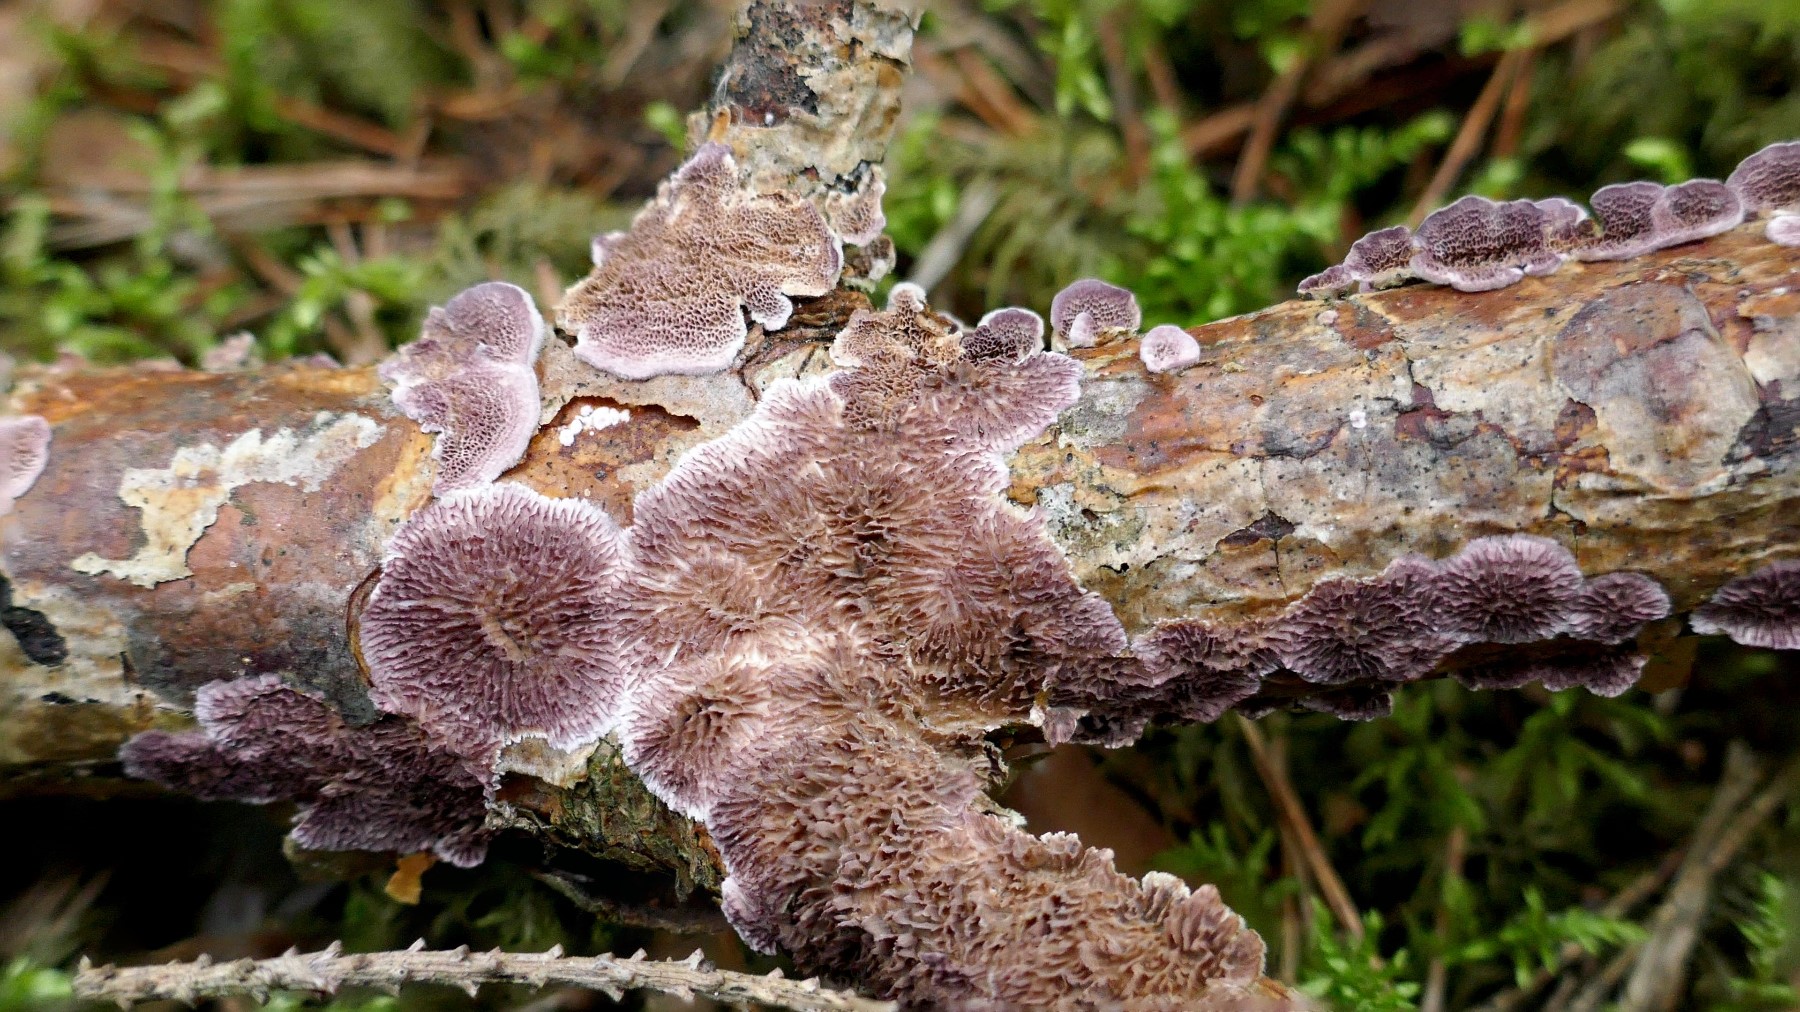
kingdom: Fungi
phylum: Basidiomycota
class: Agaricomycetes
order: Hymenochaetales
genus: Trichaptum
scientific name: Trichaptum fuscoviolaceum
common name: tandet violporesvamp
